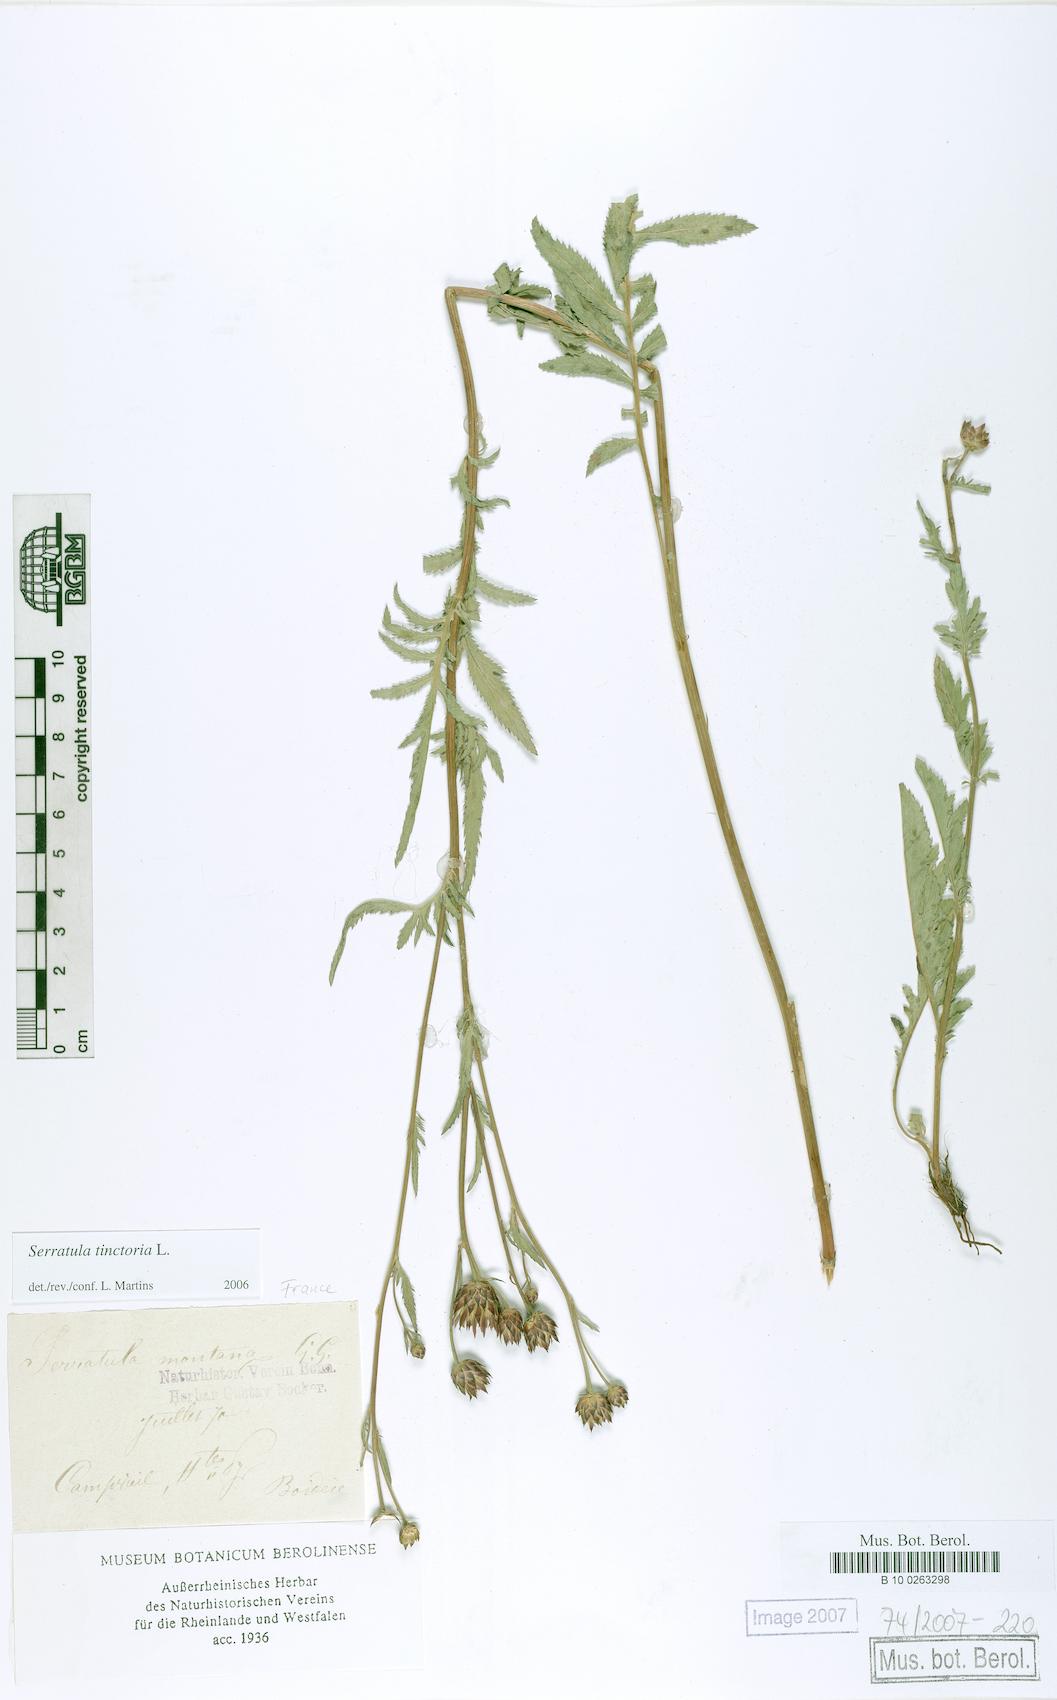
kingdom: Plantae
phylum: Tracheophyta
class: Magnoliopsida
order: Asterales
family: Asteraceae
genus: Serratula
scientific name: Serratula tinctoria
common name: Saw-wort
